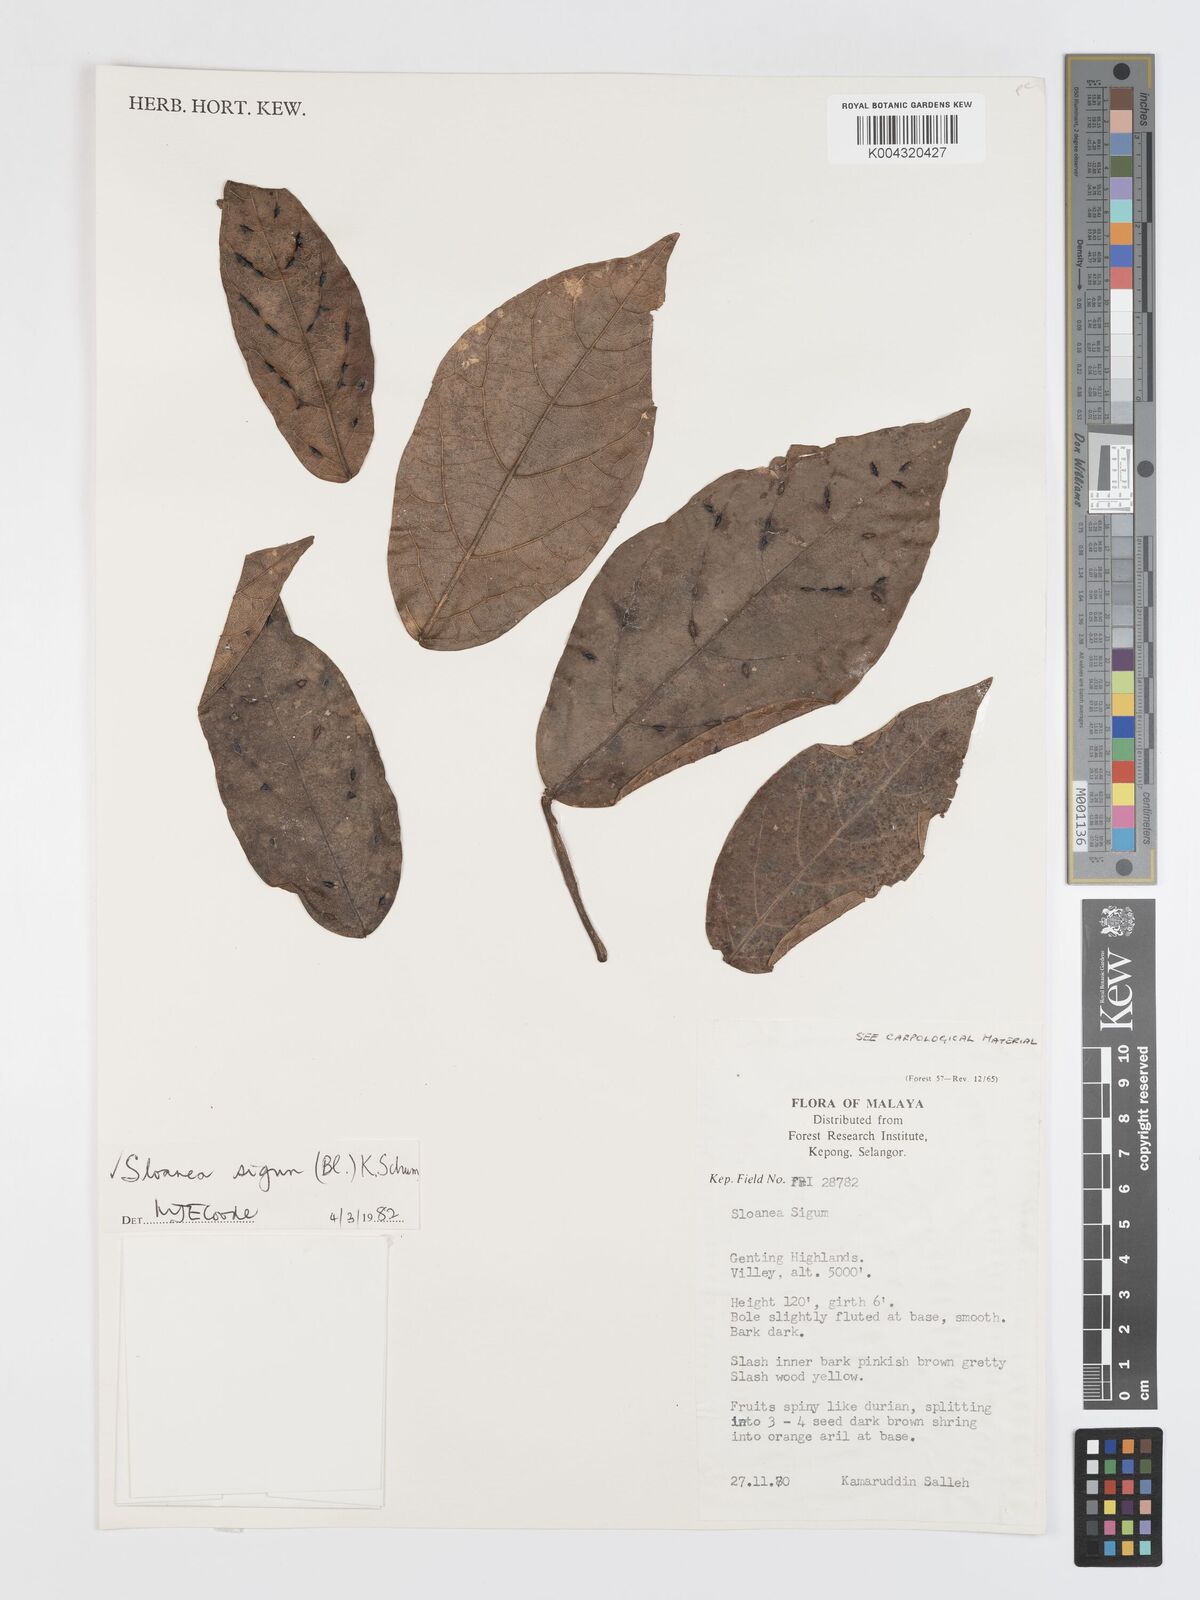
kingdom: Plantae
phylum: Tracheophyta
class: Magnoliopsida
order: Oxalidales
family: Elaeocarpaceae
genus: Sloanea
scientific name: Sloanea sigun
